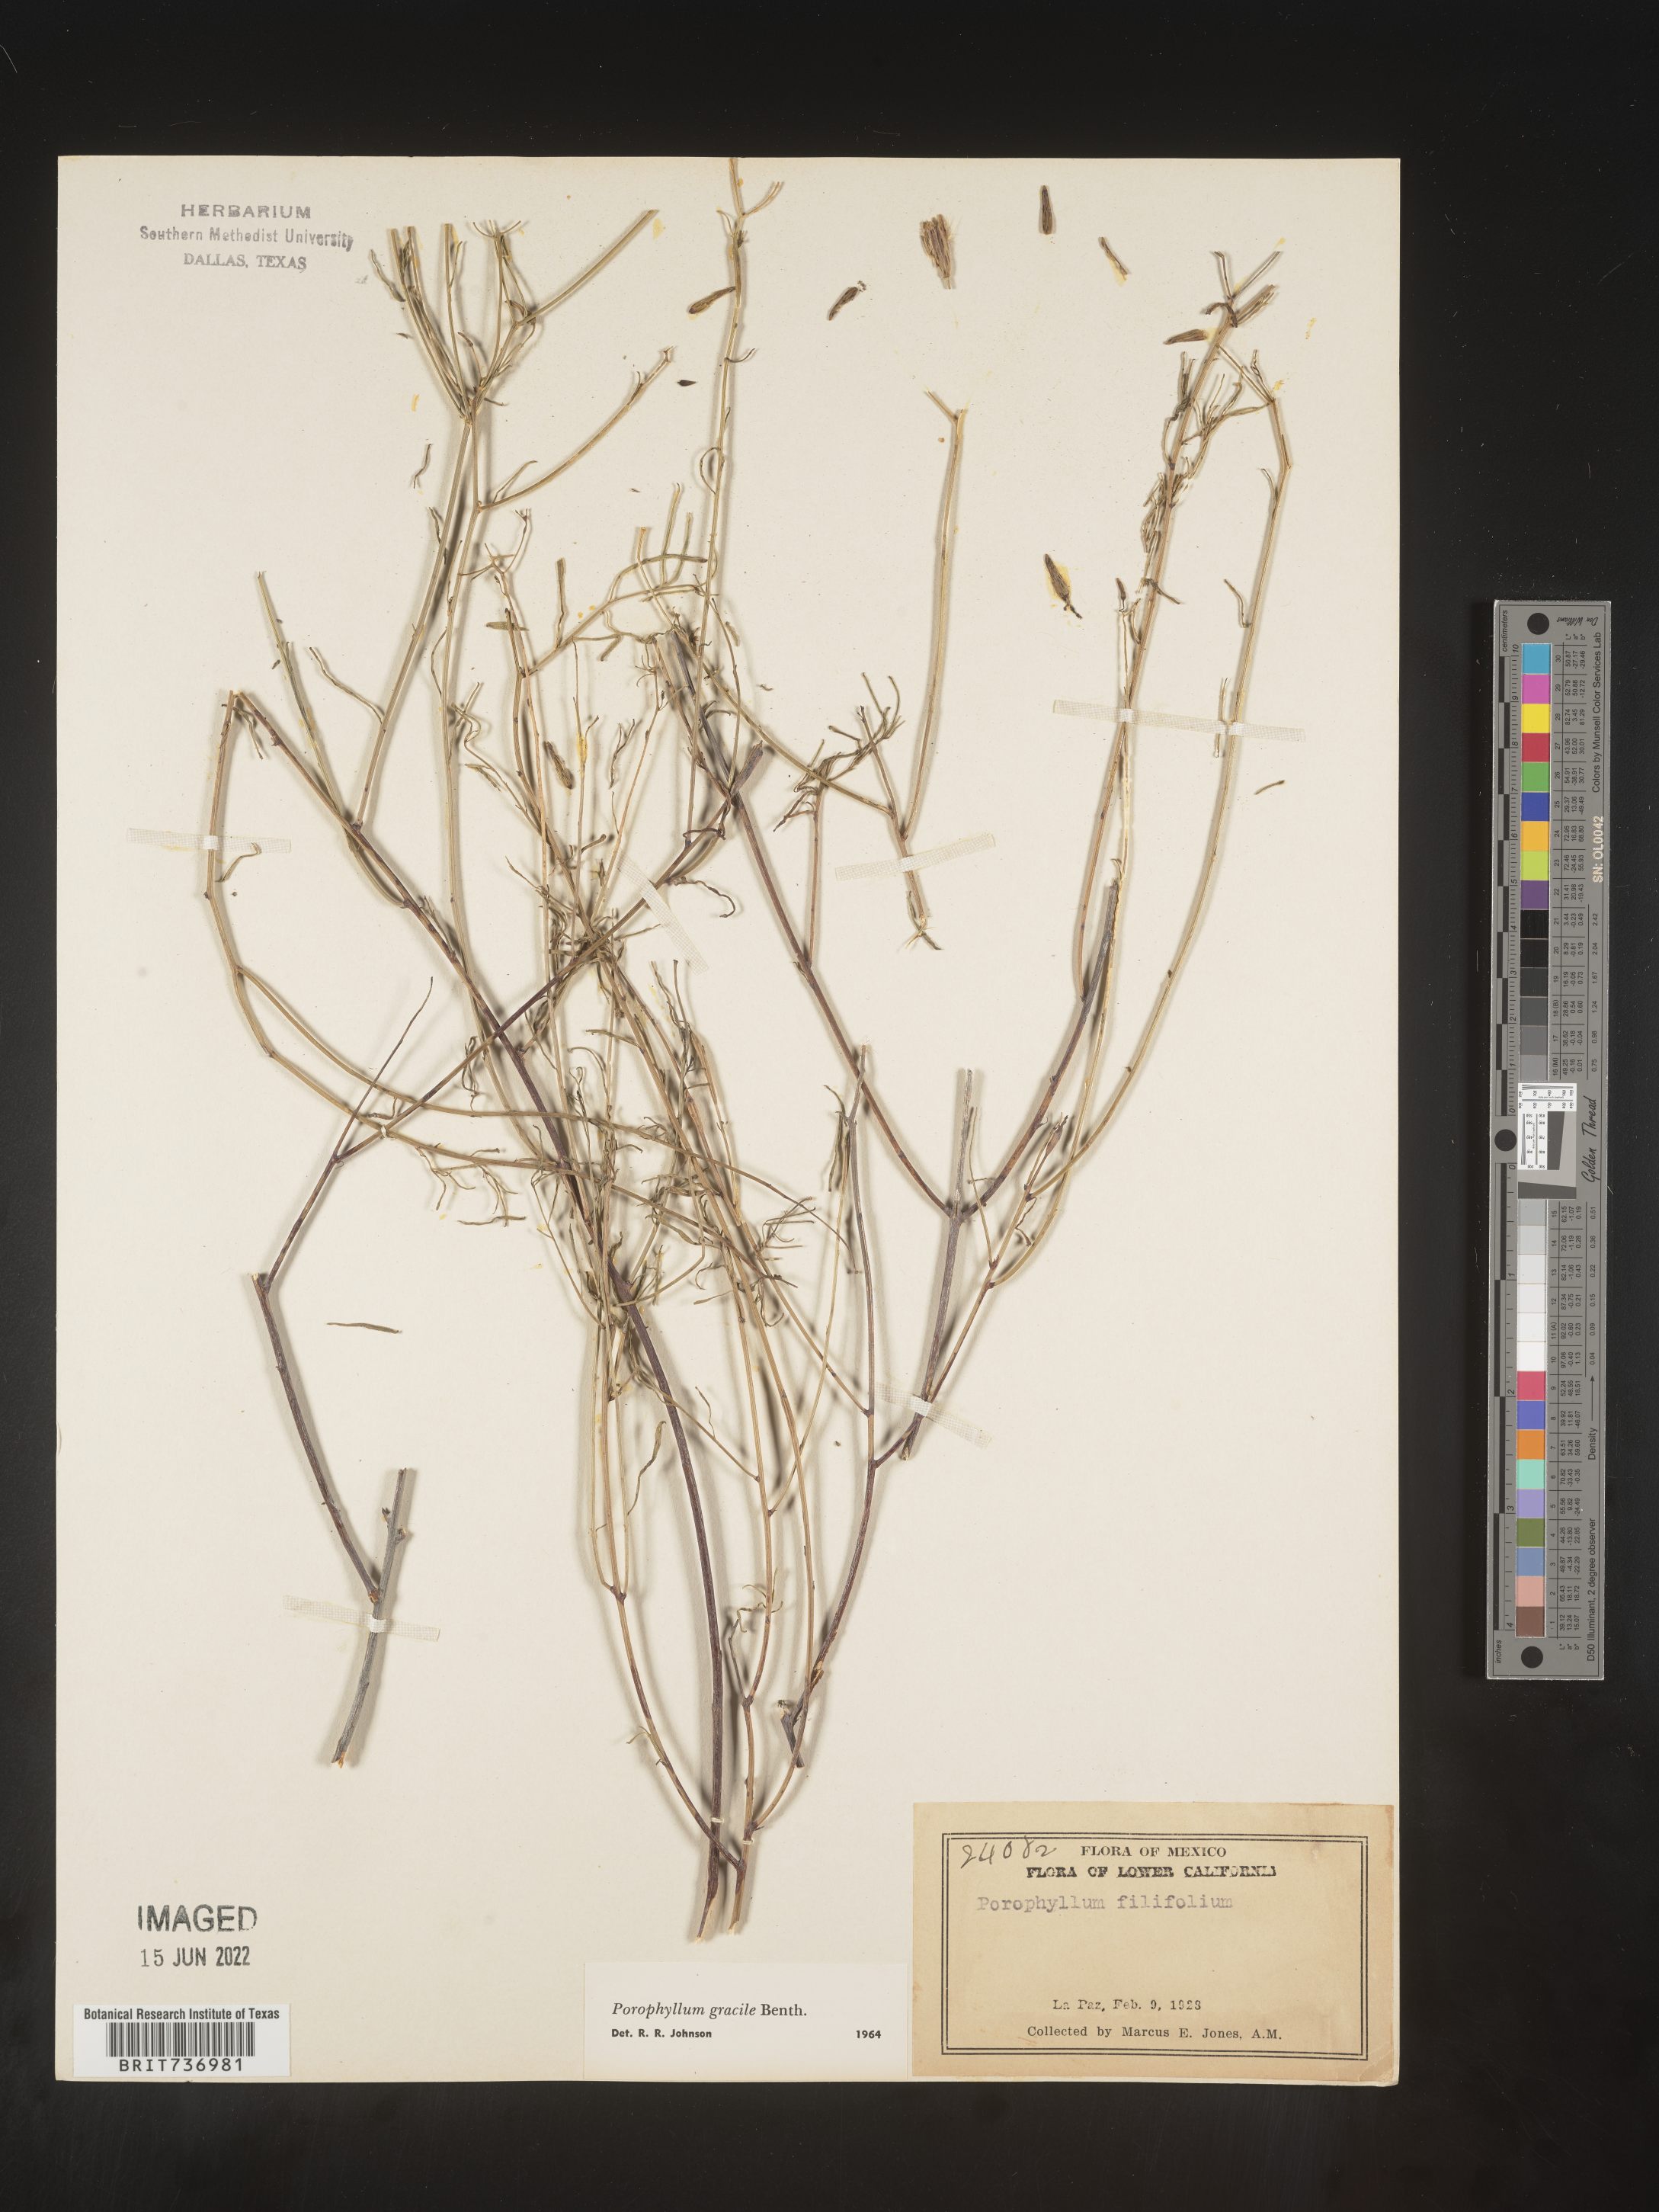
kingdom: Plantae
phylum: Tracheophyta
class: Magnoliopsida
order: Asterales
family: Asteraceae
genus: Porophyllum
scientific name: Porophyllum
